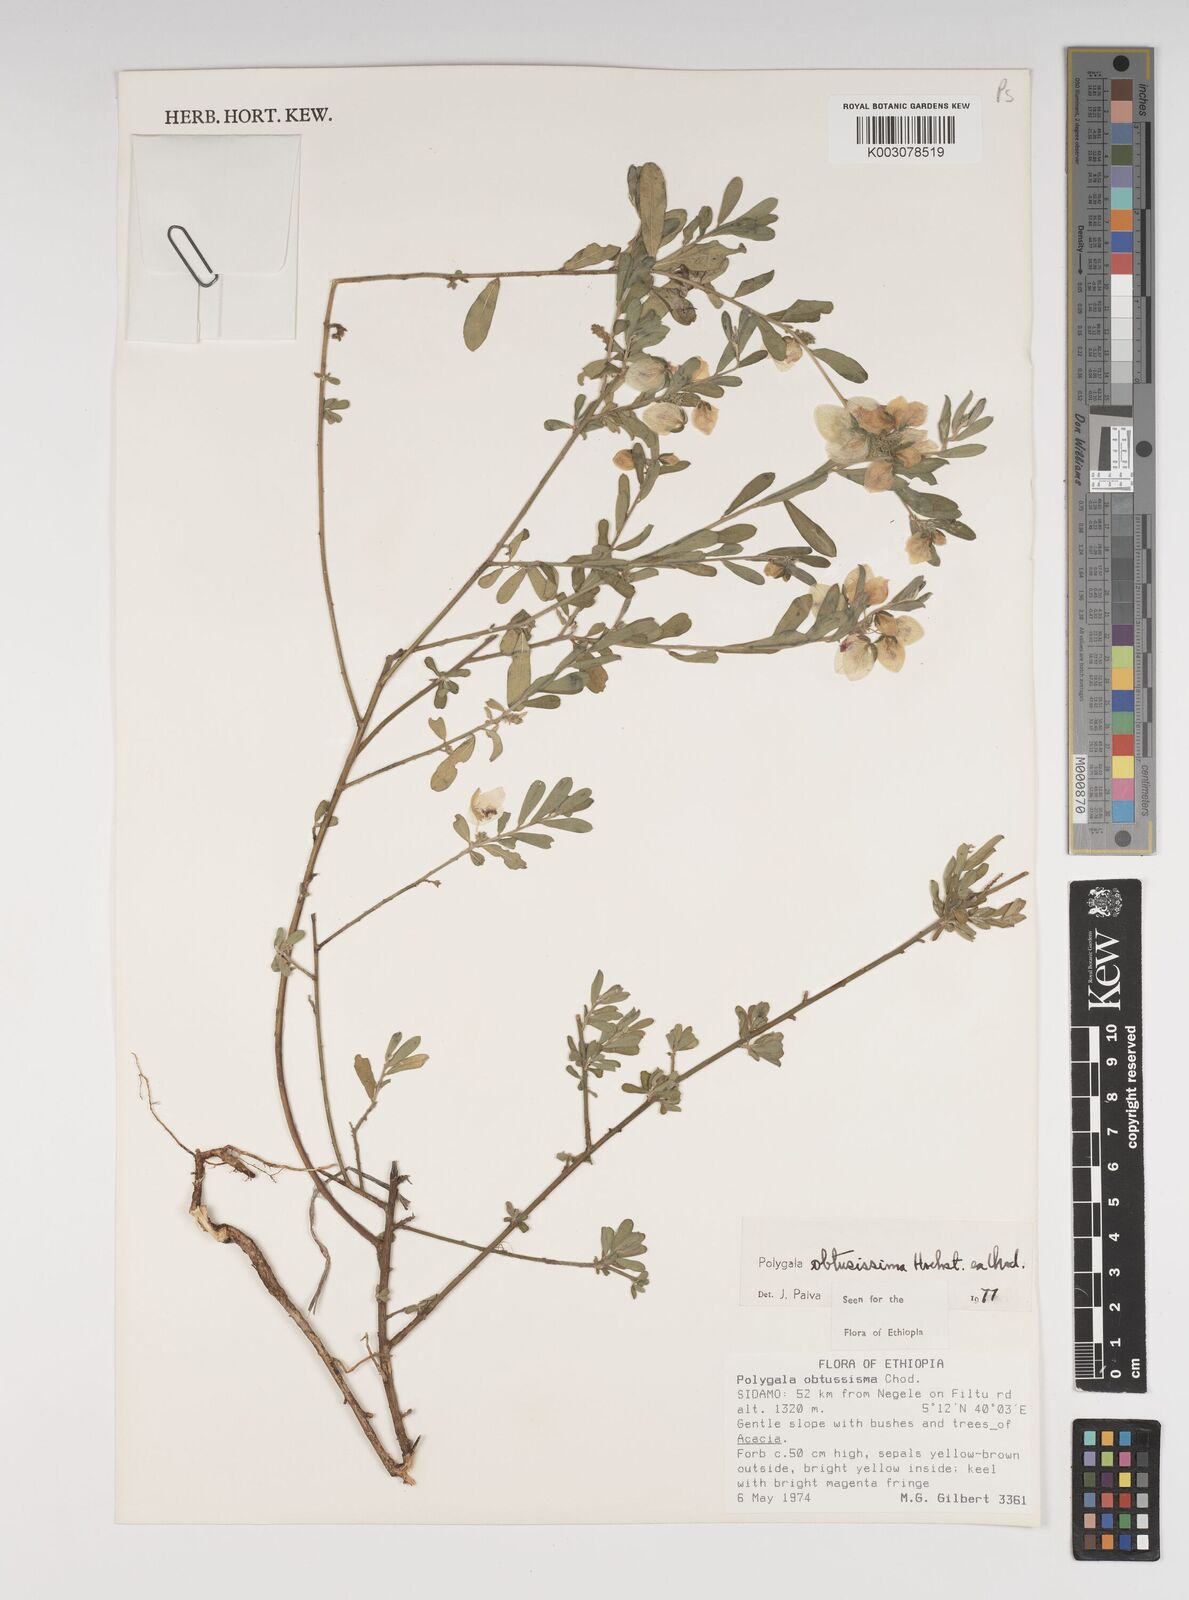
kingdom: Plantae
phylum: Tracheophyta
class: Magnoliopsida
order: Fabales
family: Polygalaceae
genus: Polygala
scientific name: Polygala senensis
